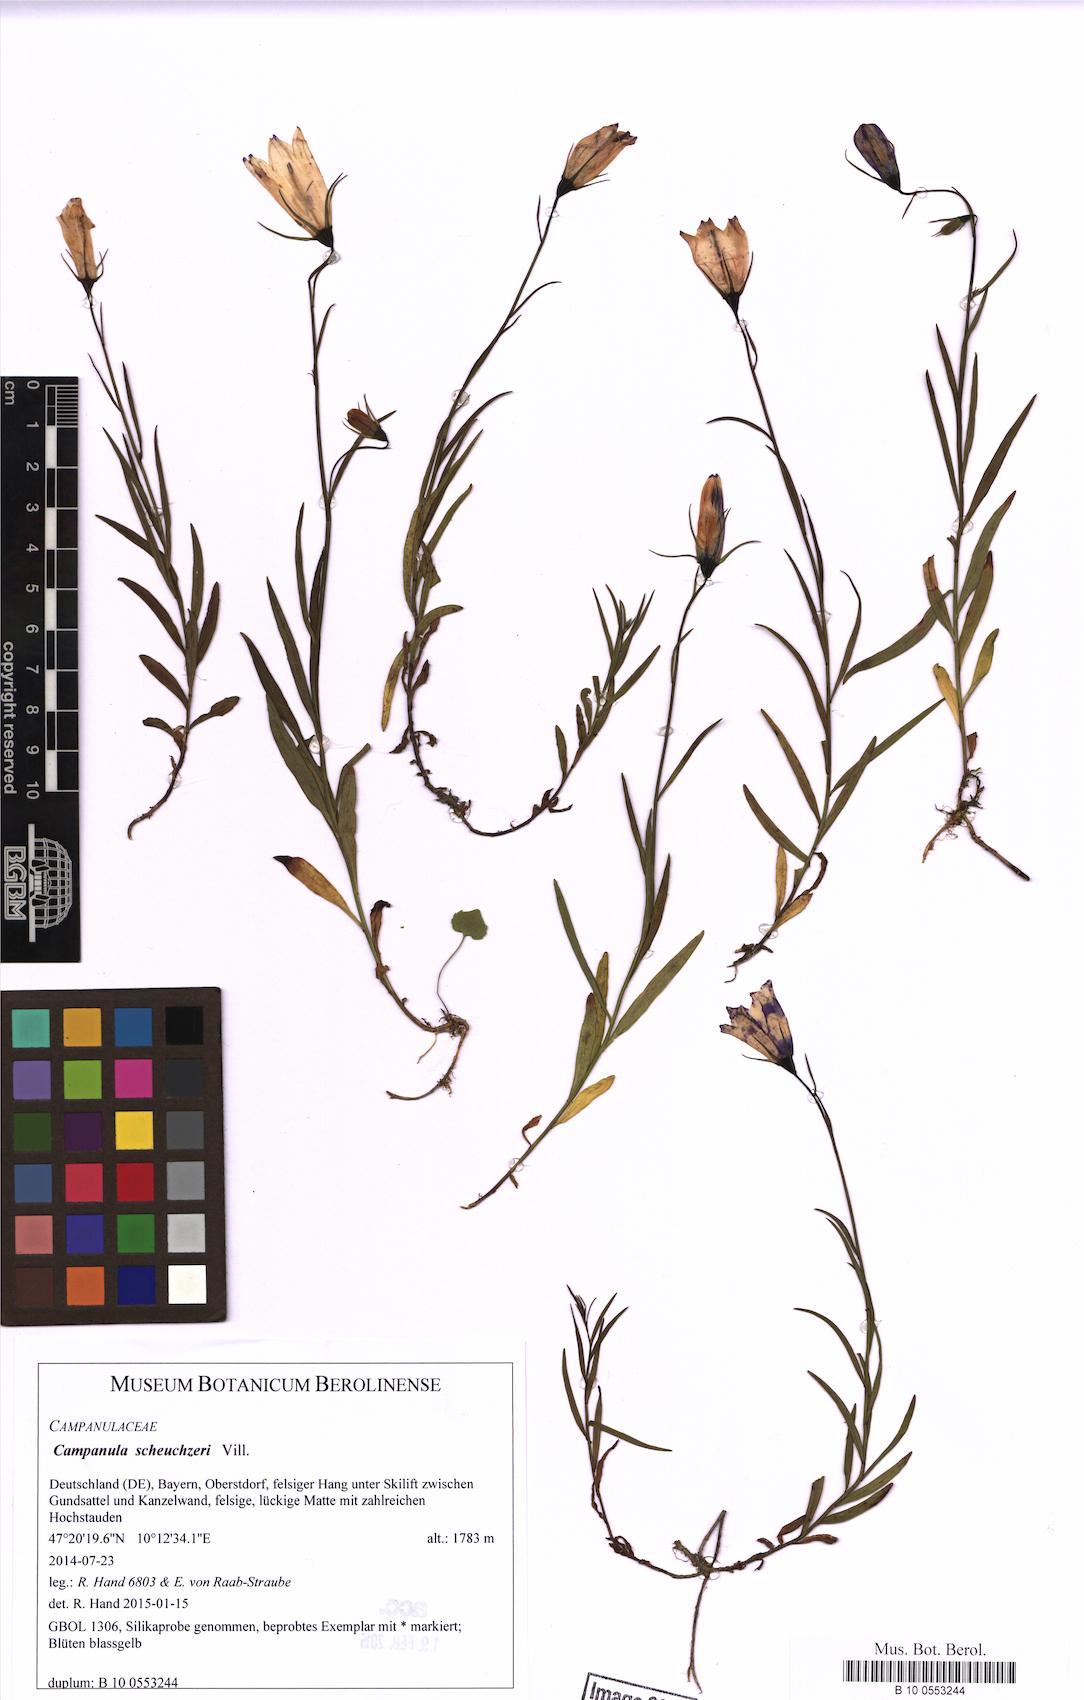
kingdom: Plantae
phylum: Tracheophyta
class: Magnoliopsida
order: Asterales
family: Campanulaceae
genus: Campanula
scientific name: Campanula thyrsoides
